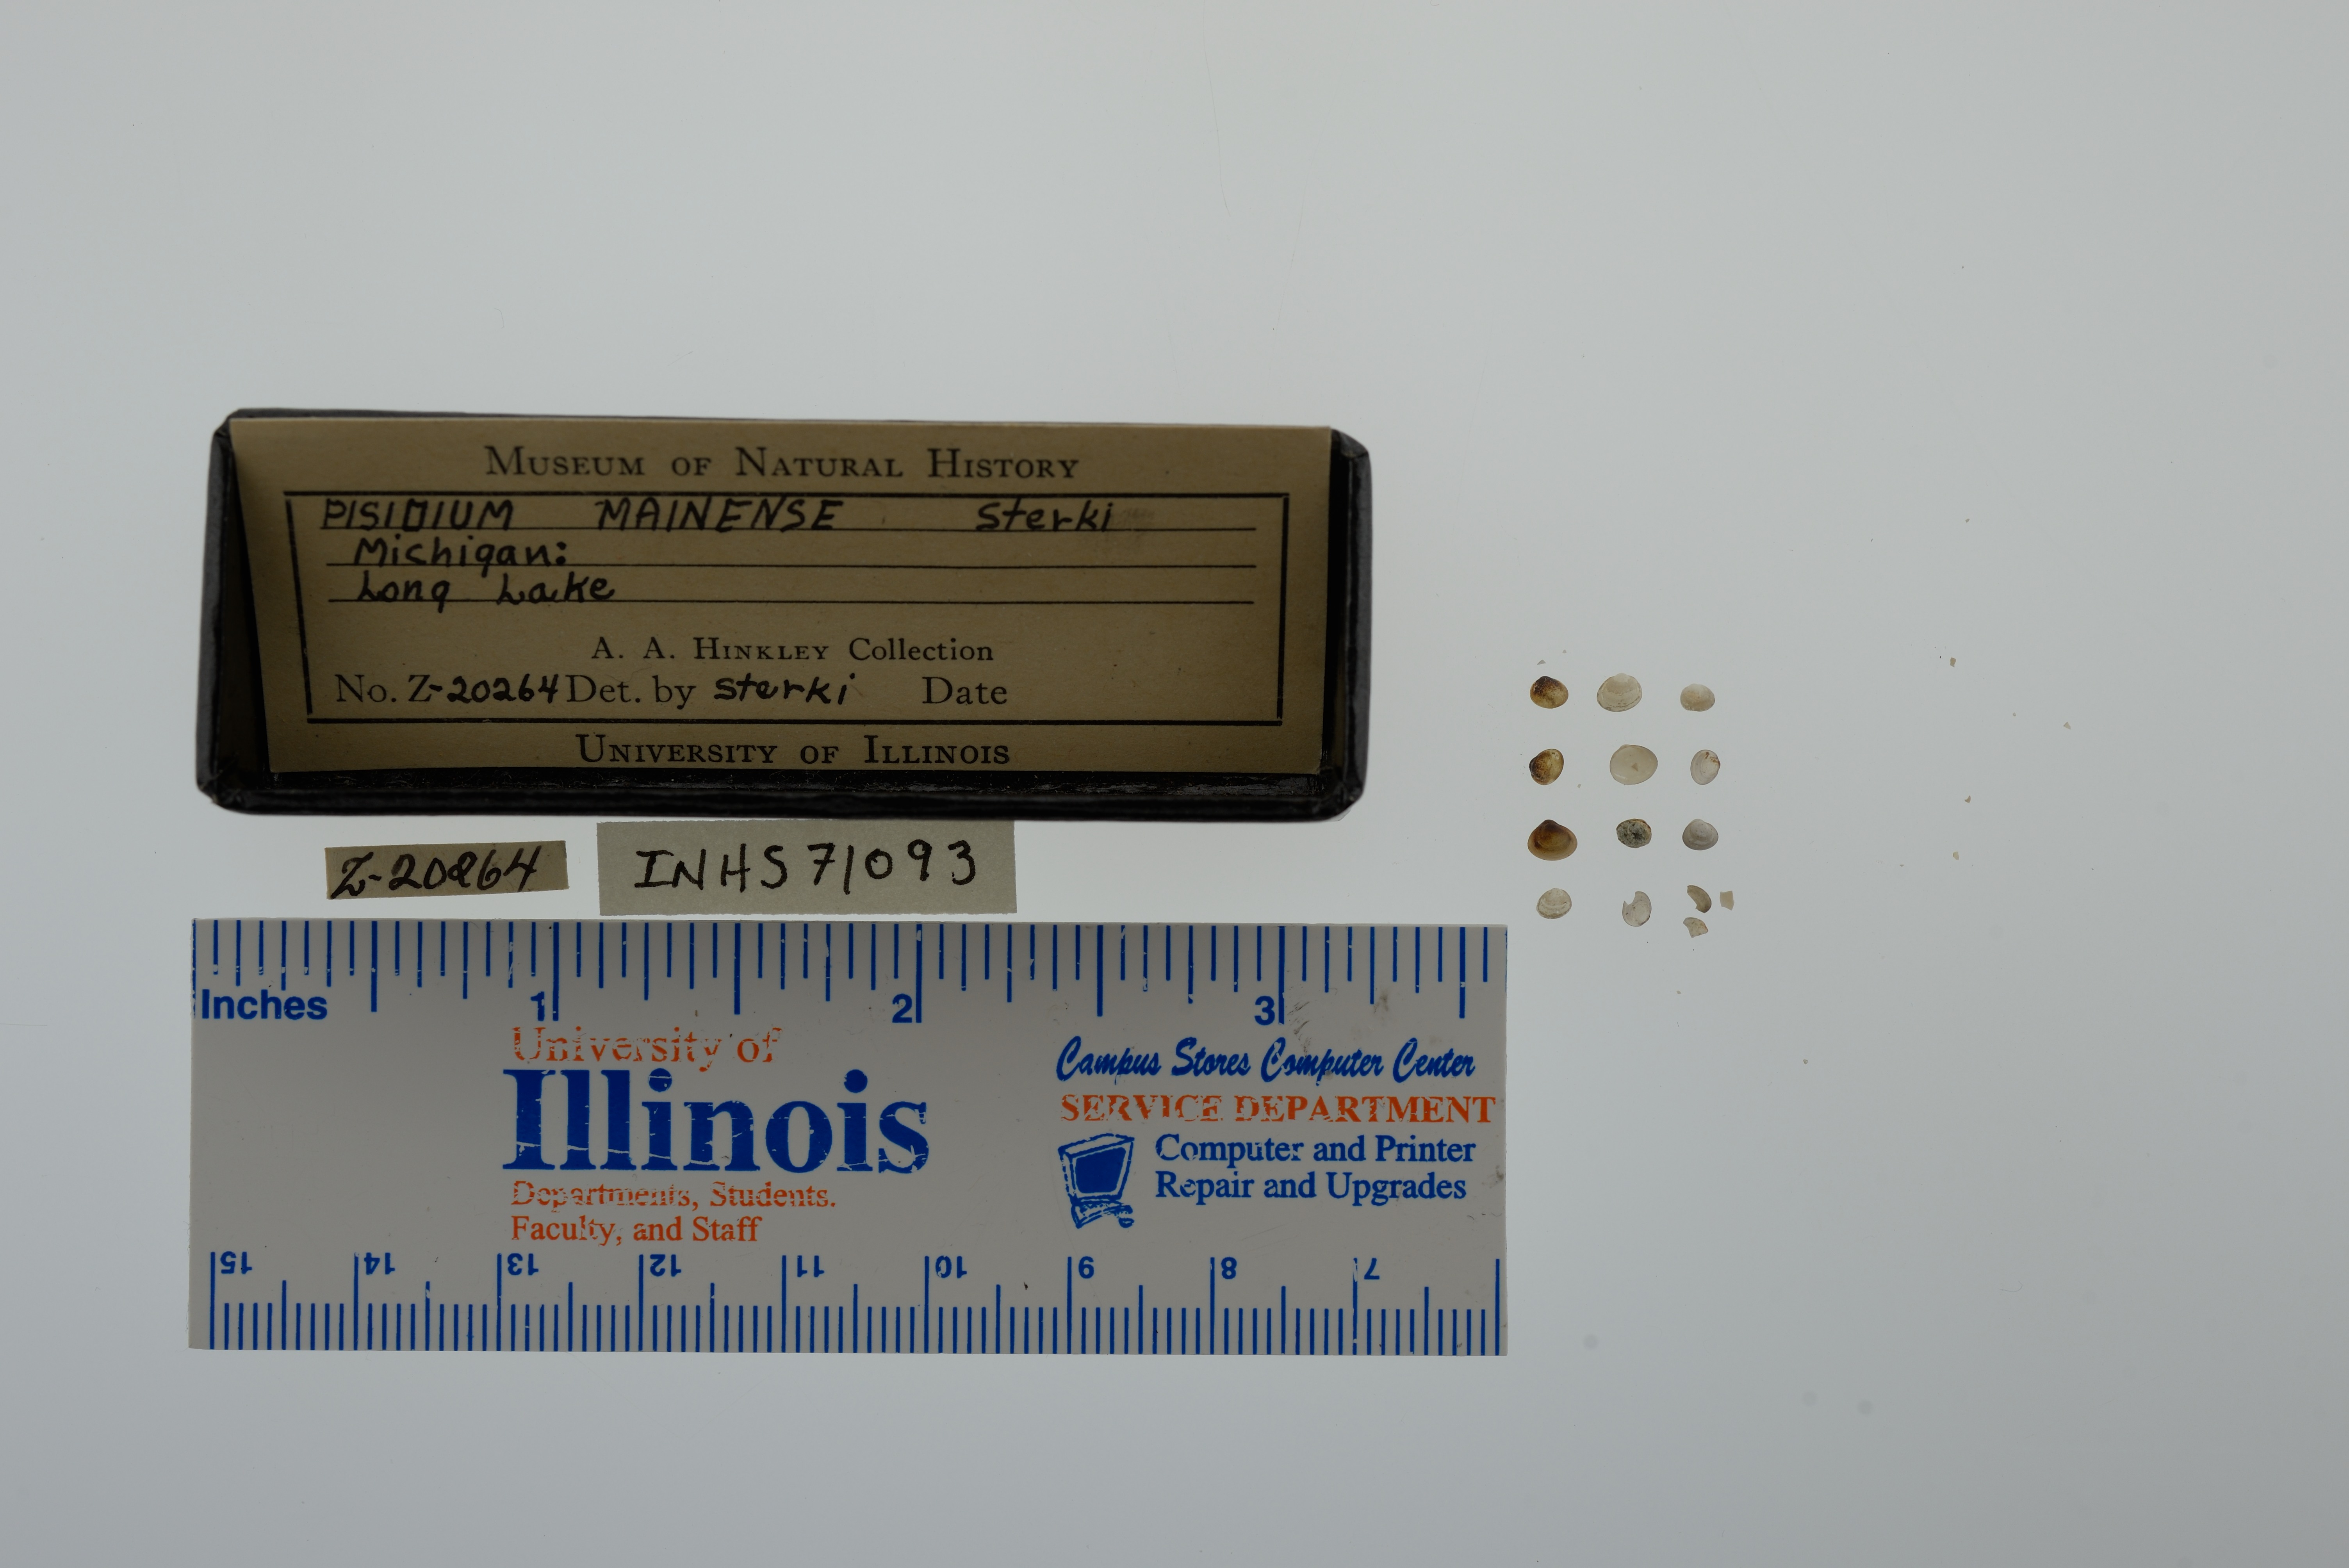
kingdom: Animalia
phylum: Mollusca
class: Bivalvia
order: Sphaeriida
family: Sphaeriidae
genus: Euglesa
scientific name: Euglesa walkeri
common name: Walker peaclam
